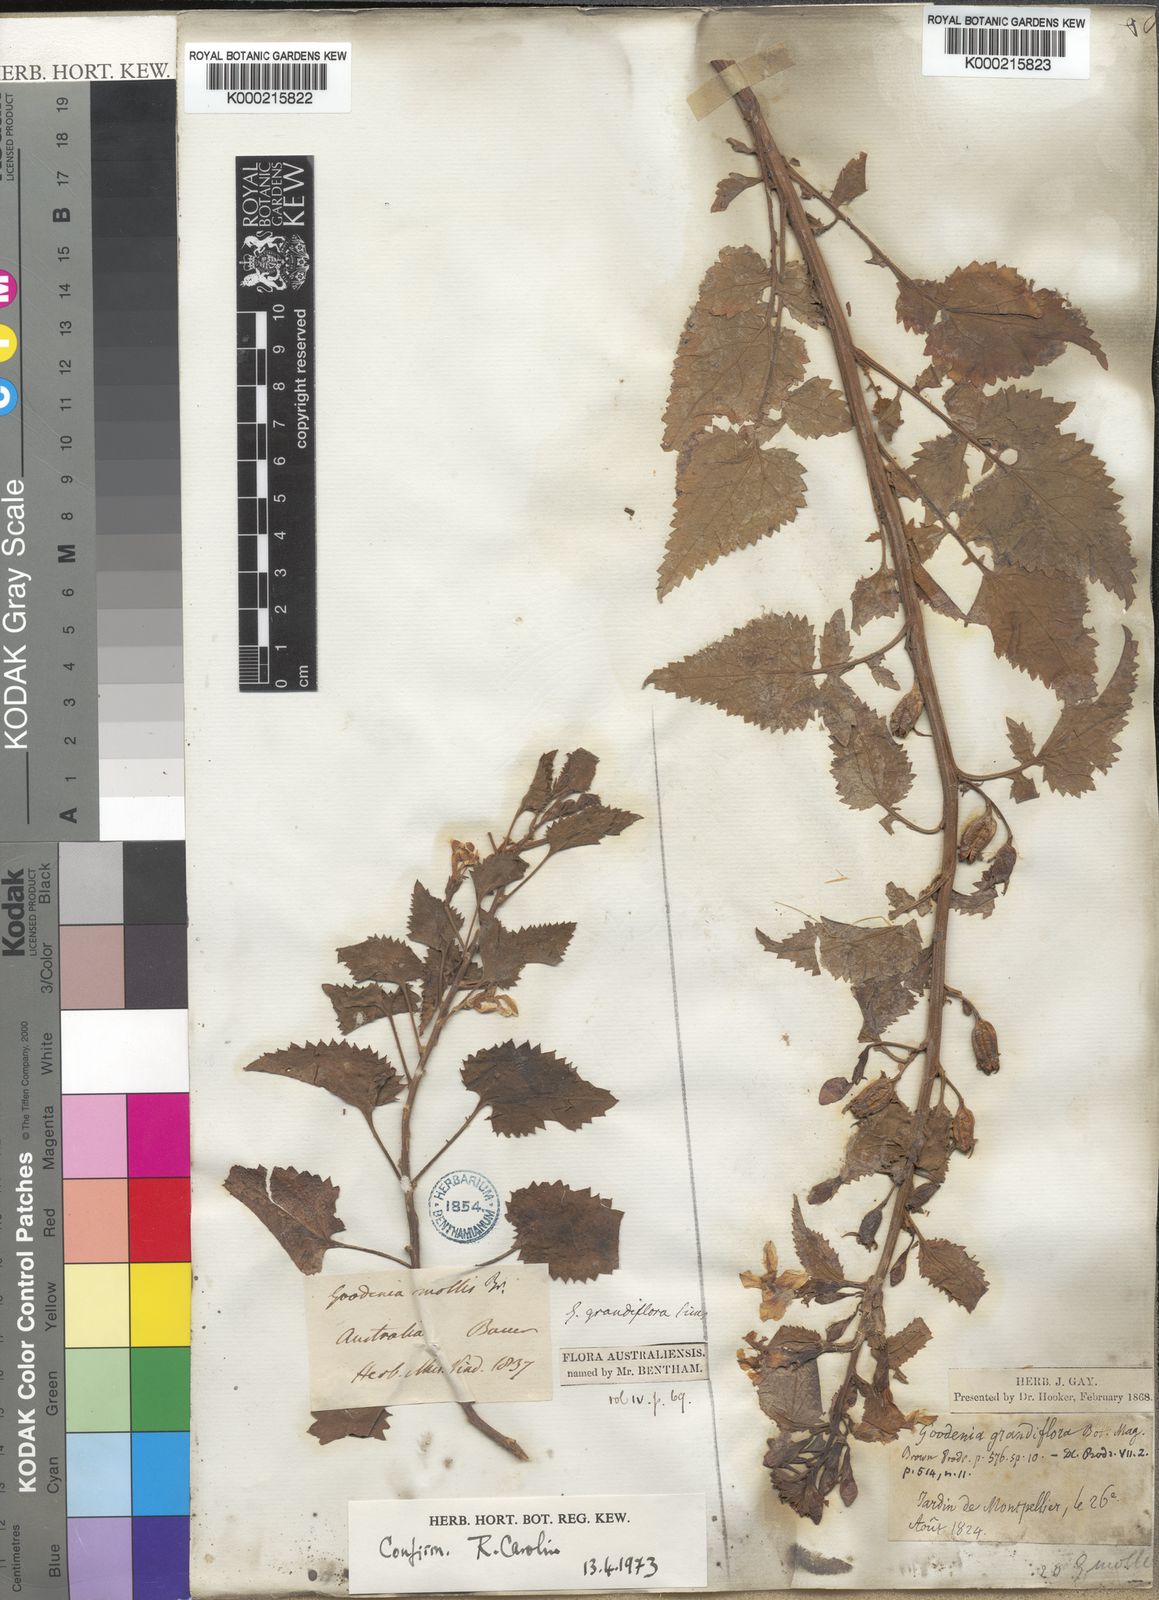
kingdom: Plantae
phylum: Tracheophyta
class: Magnoliopsida
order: Asterales
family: Goodeniaceae
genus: Goodenia
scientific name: Goodenia grandiflora
